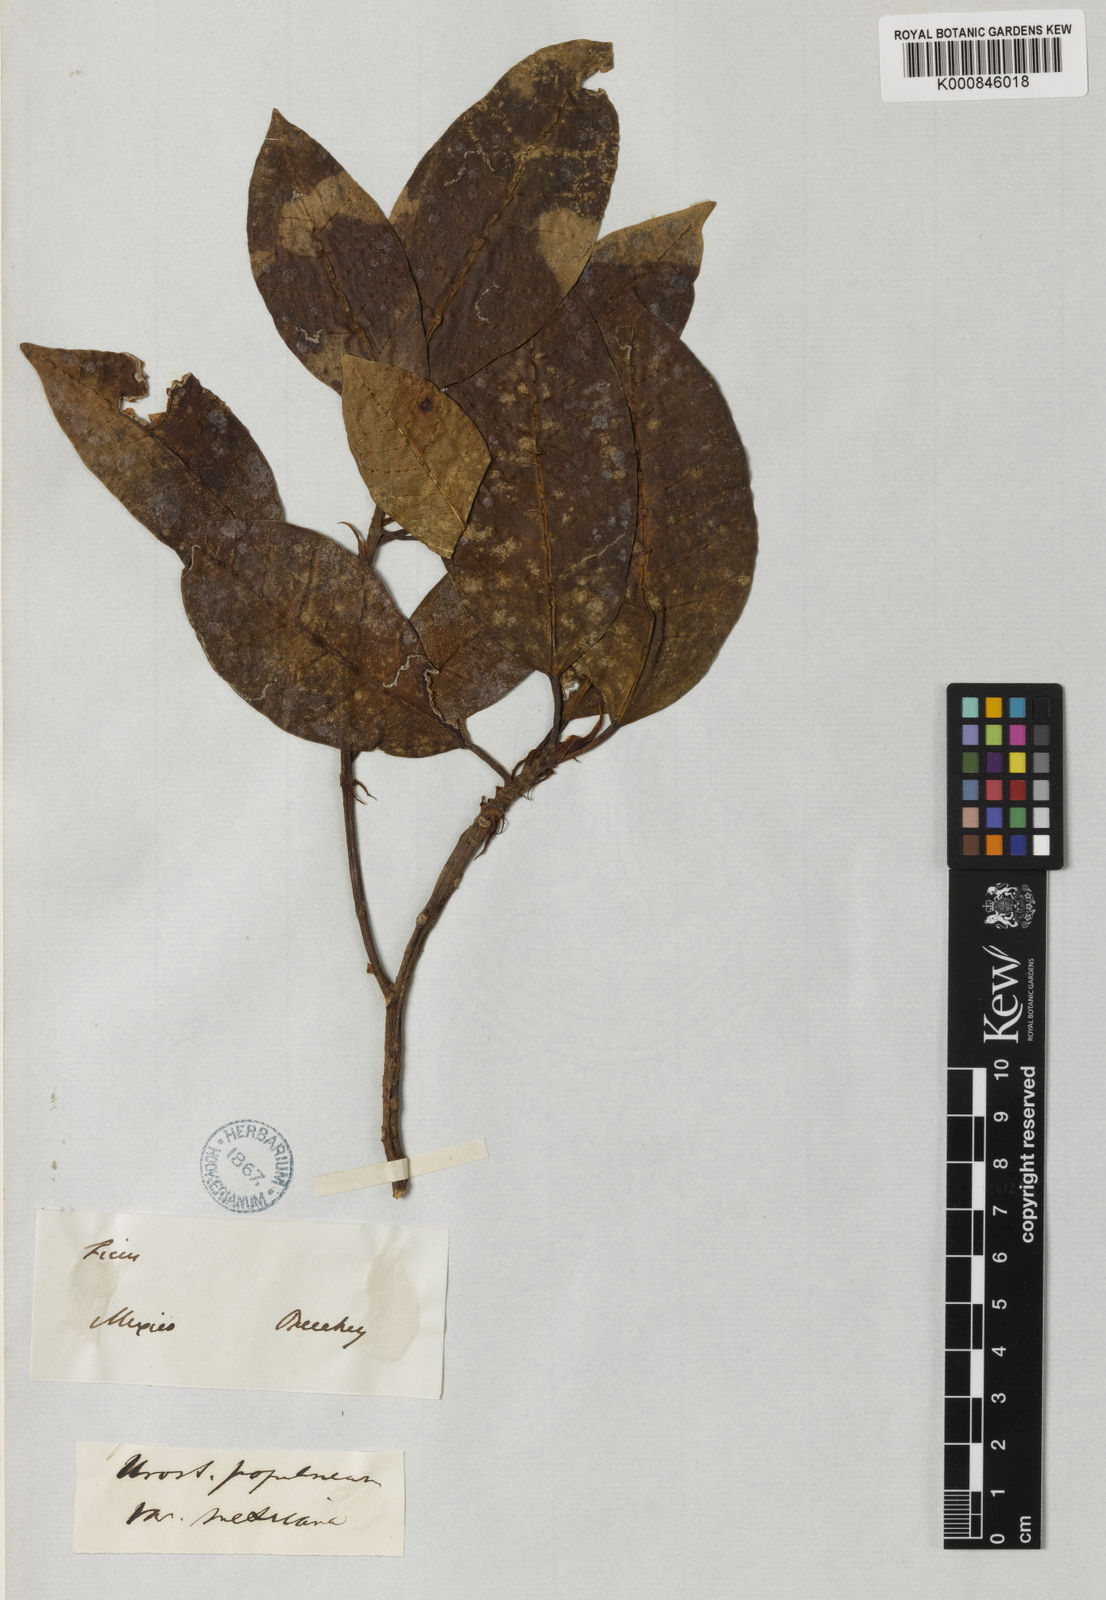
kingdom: Plantae
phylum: Tracheophyta
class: Magnoliopsida
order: Rosales
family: Moraceae
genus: Ficus
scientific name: Ficus citrifolia
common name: Strangler fig
